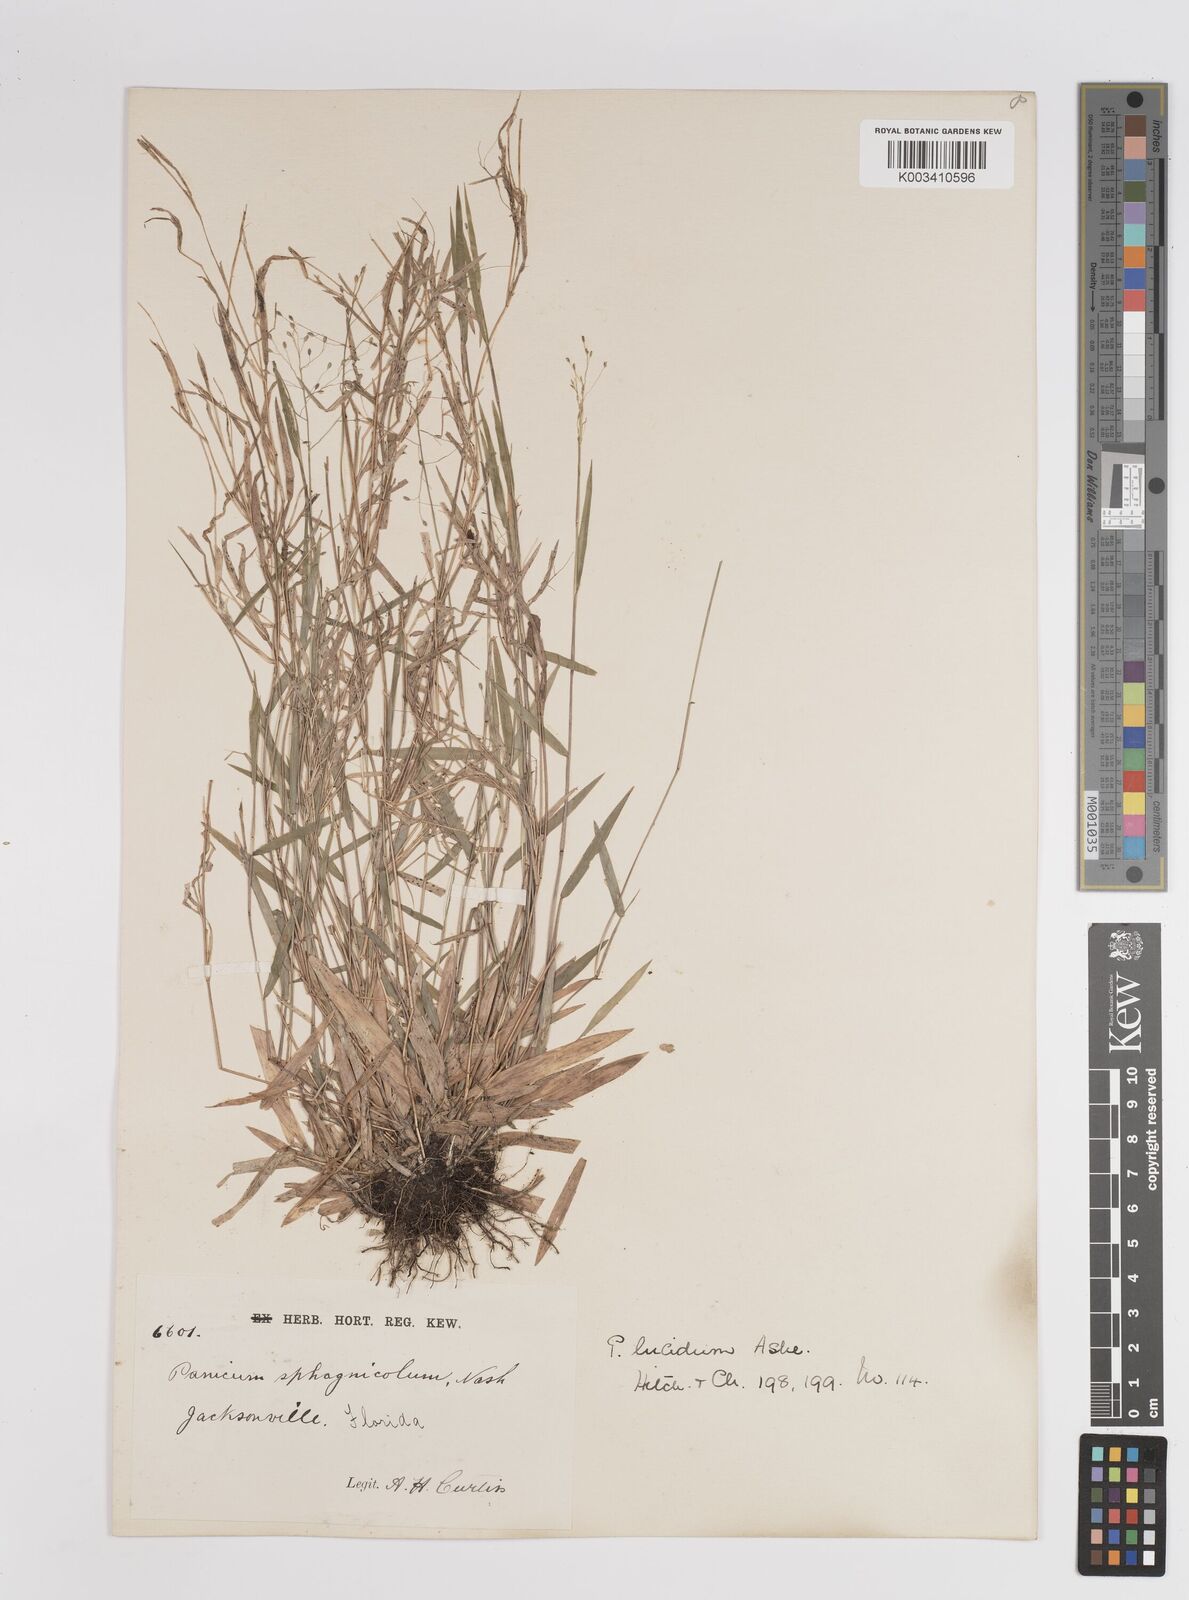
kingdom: Plantae
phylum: Tracheophyta
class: Liliopsida
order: Poales
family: Poaceae
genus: Dichanthelium
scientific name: Dichanthelium lucidum
